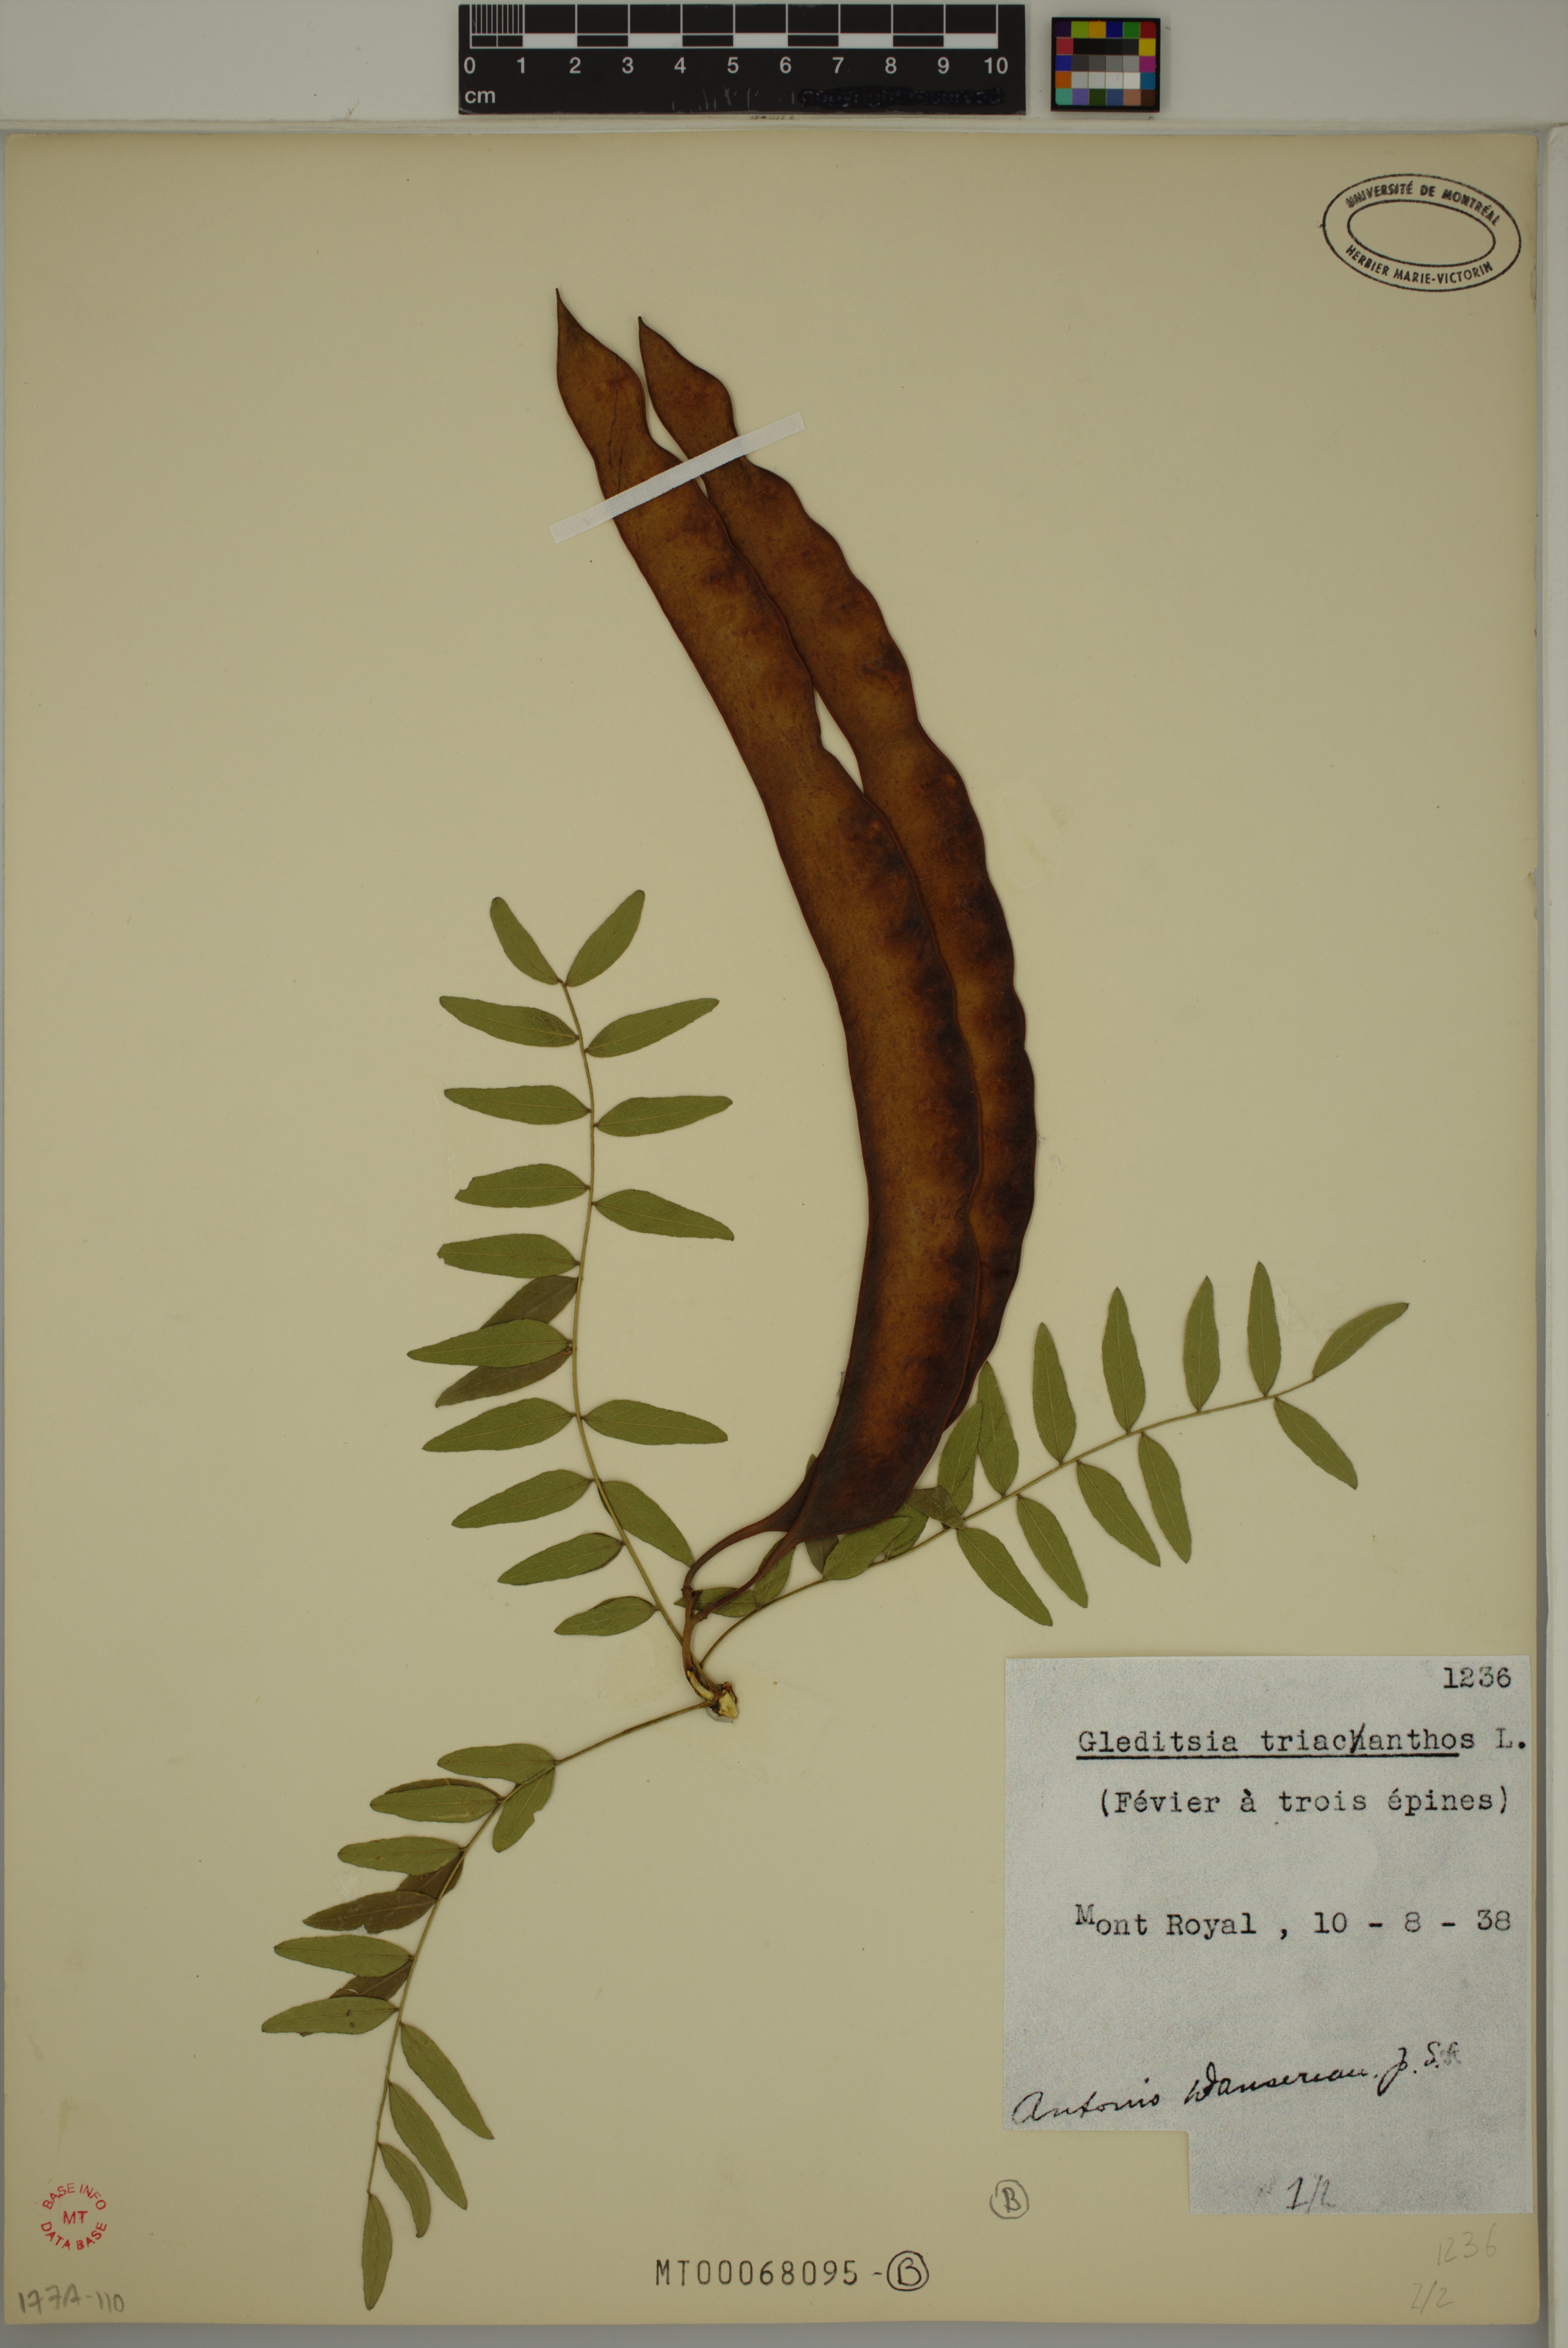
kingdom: Plantae
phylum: Tracheophyta
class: Magnoliopsida
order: Fabales
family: Fabaceae
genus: Gleditsia
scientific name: Gleditsia triacanthos
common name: Common honeylocust
